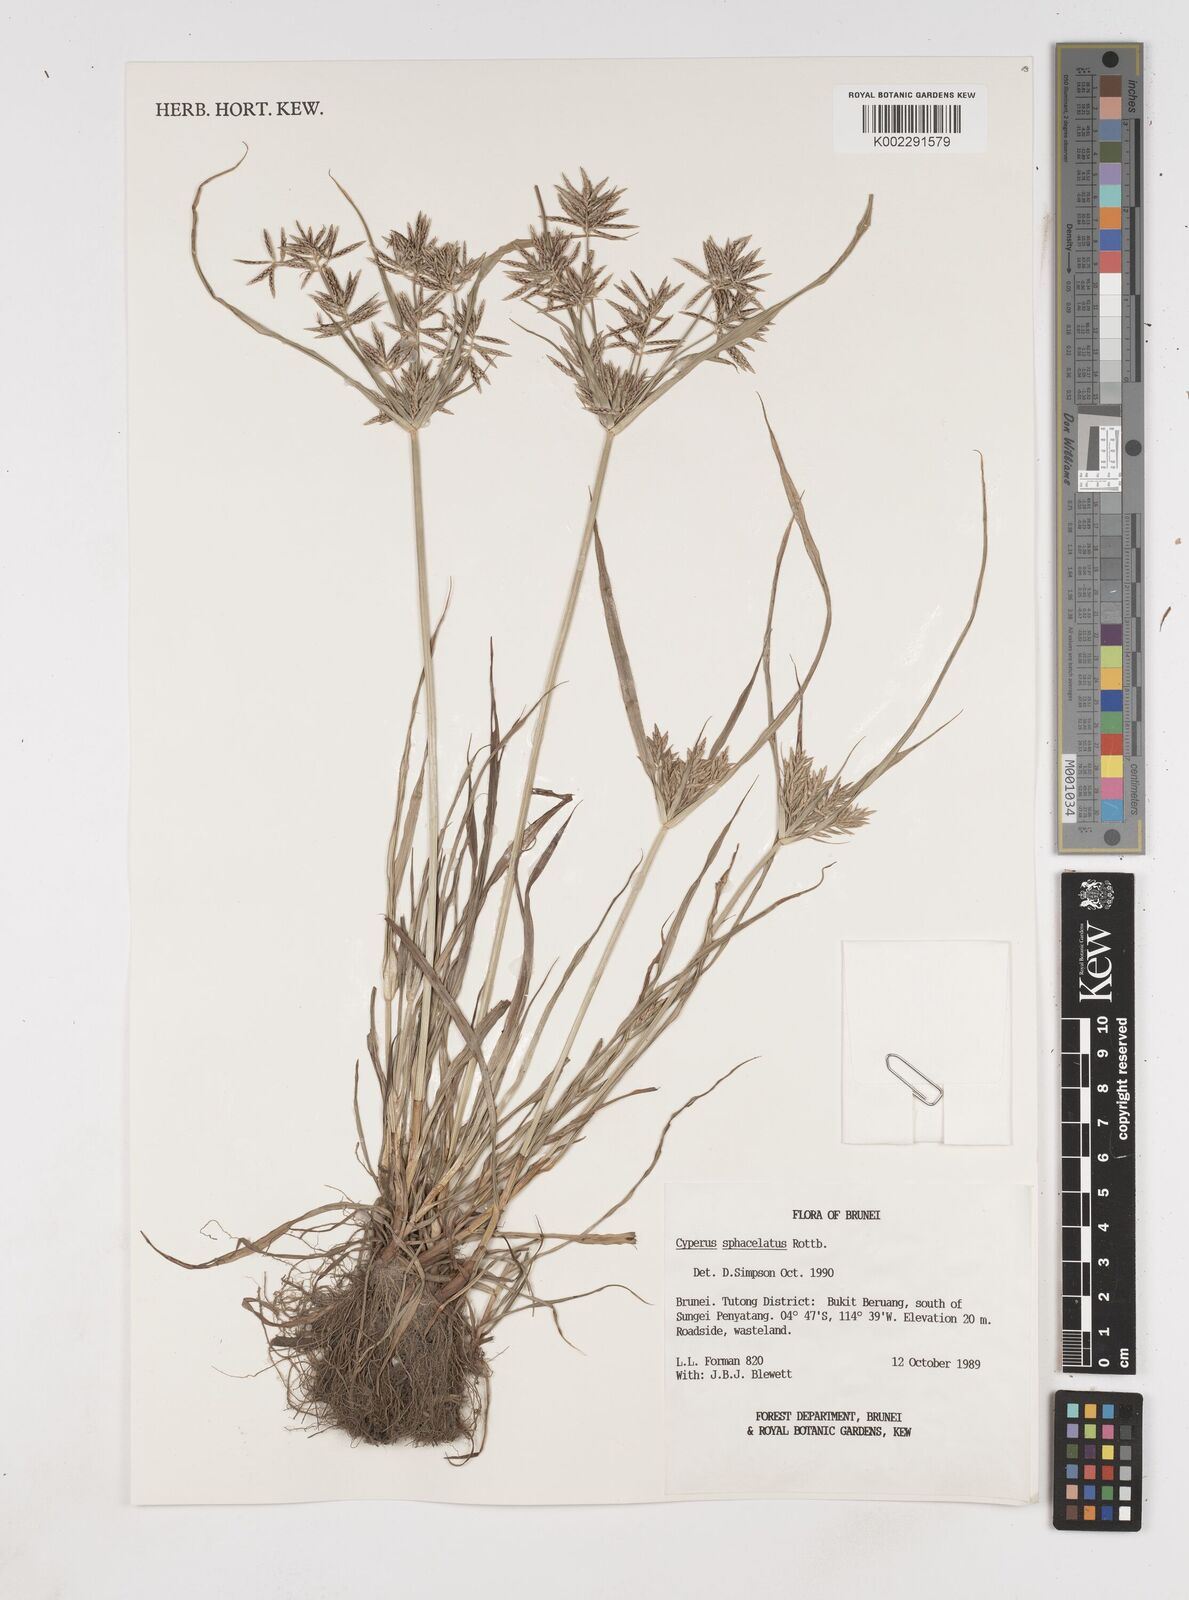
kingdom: Plantae
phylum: Tracheophyta
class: Liliopsida
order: Poales
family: Cyperaceae
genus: Cyperus
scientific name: Cyperus sphacelatus
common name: Roadside flatsedge
